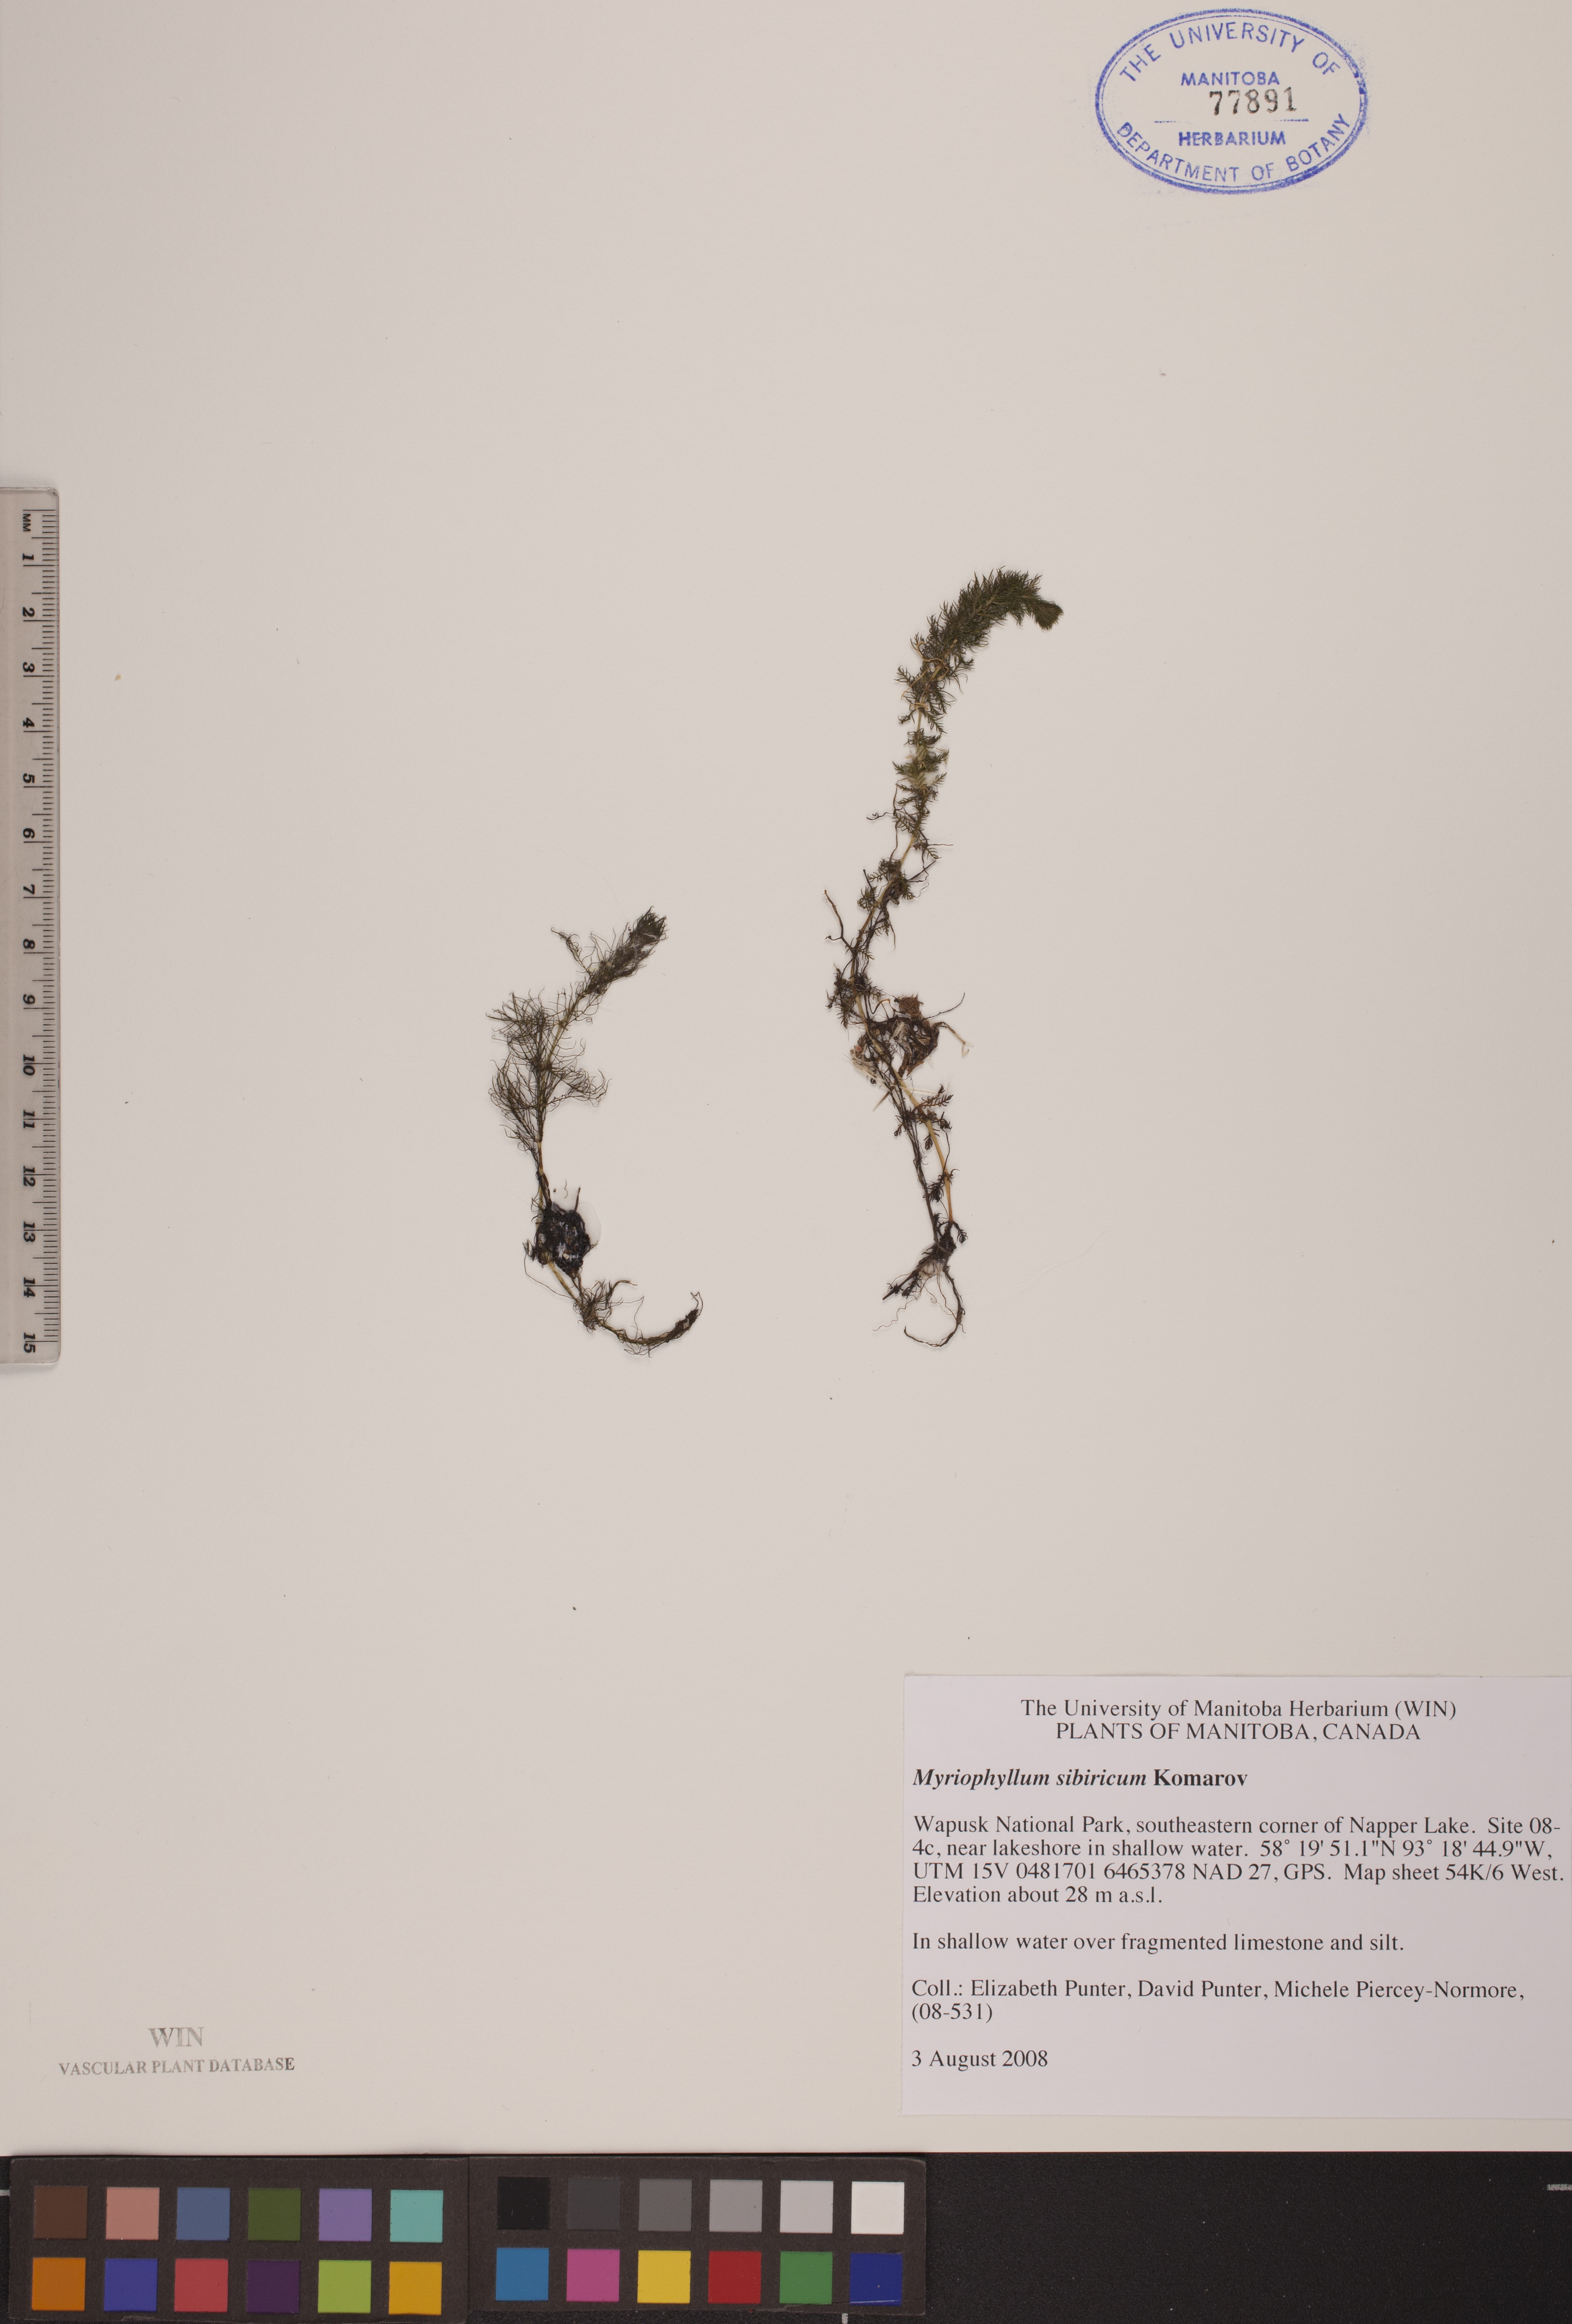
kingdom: Plantae
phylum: Tracheophyta
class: Magnoliopsida
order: Saxifragales
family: Haloragaceae
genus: Myriophyllum
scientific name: Myriophyllum sibiricum
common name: Siberian water-milfoil
